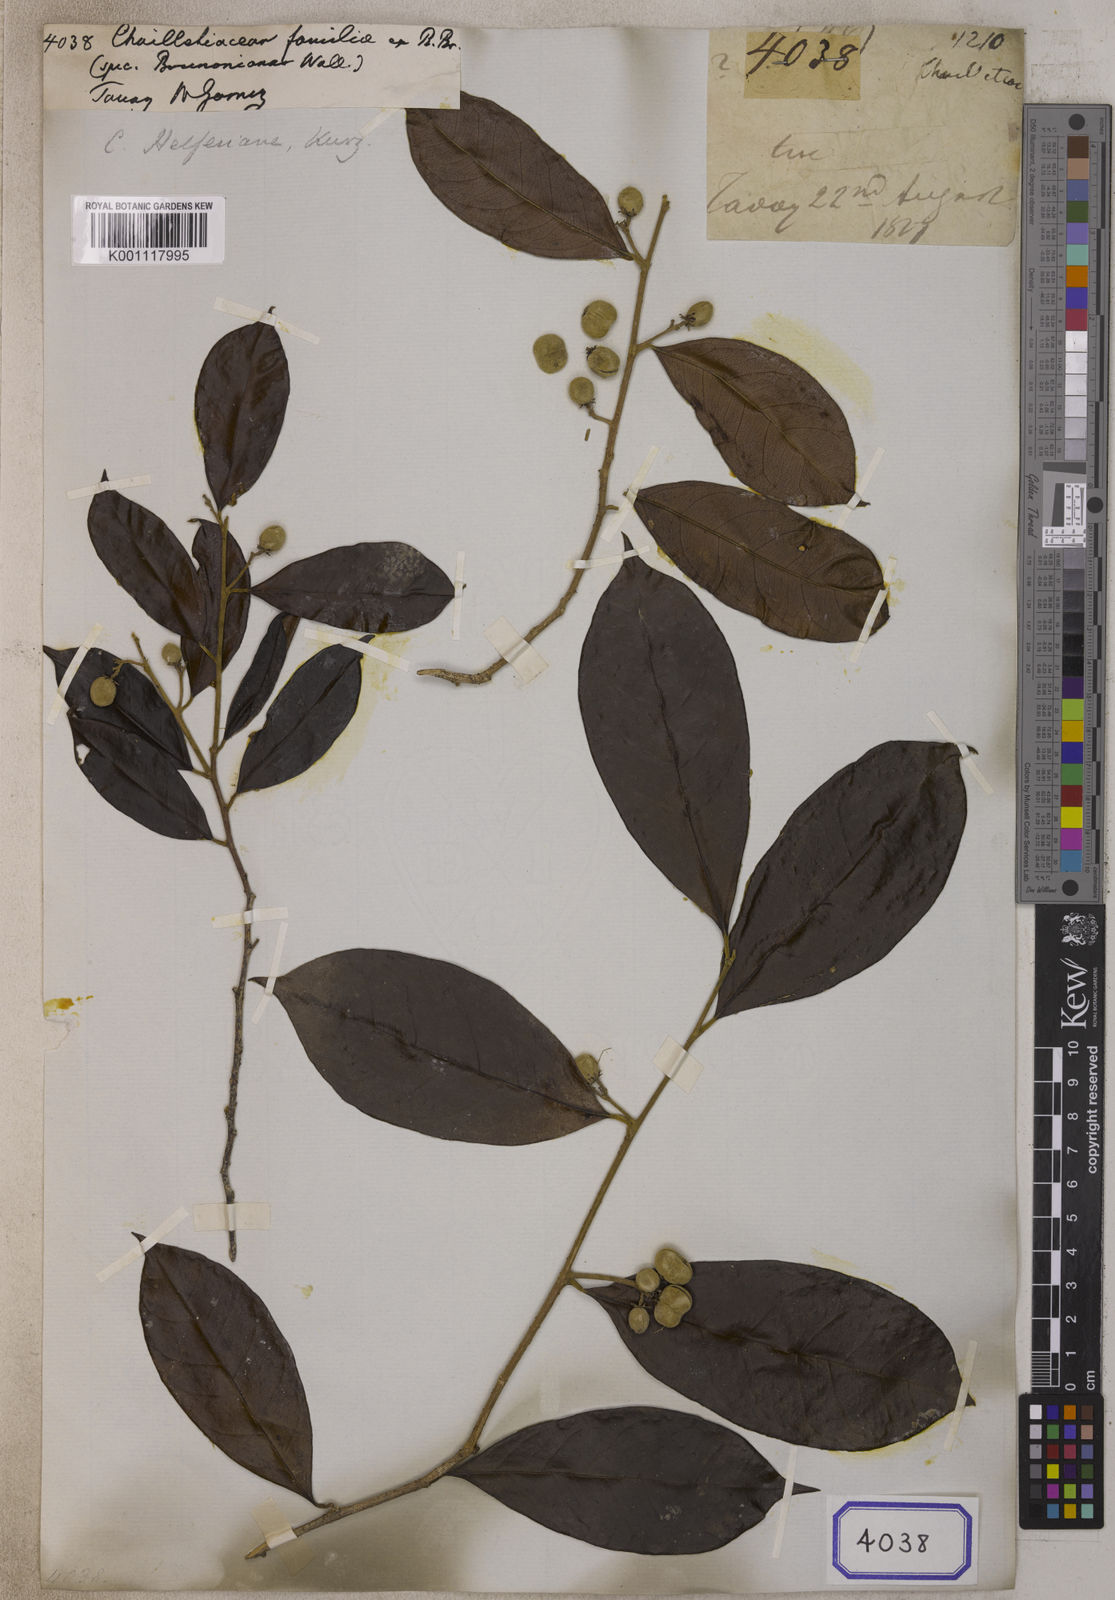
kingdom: Plantae
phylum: Tracheophyta
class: Magnoliopsida
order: Malpighiales
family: Dichapetalaceae
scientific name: Dichapetalaceae
